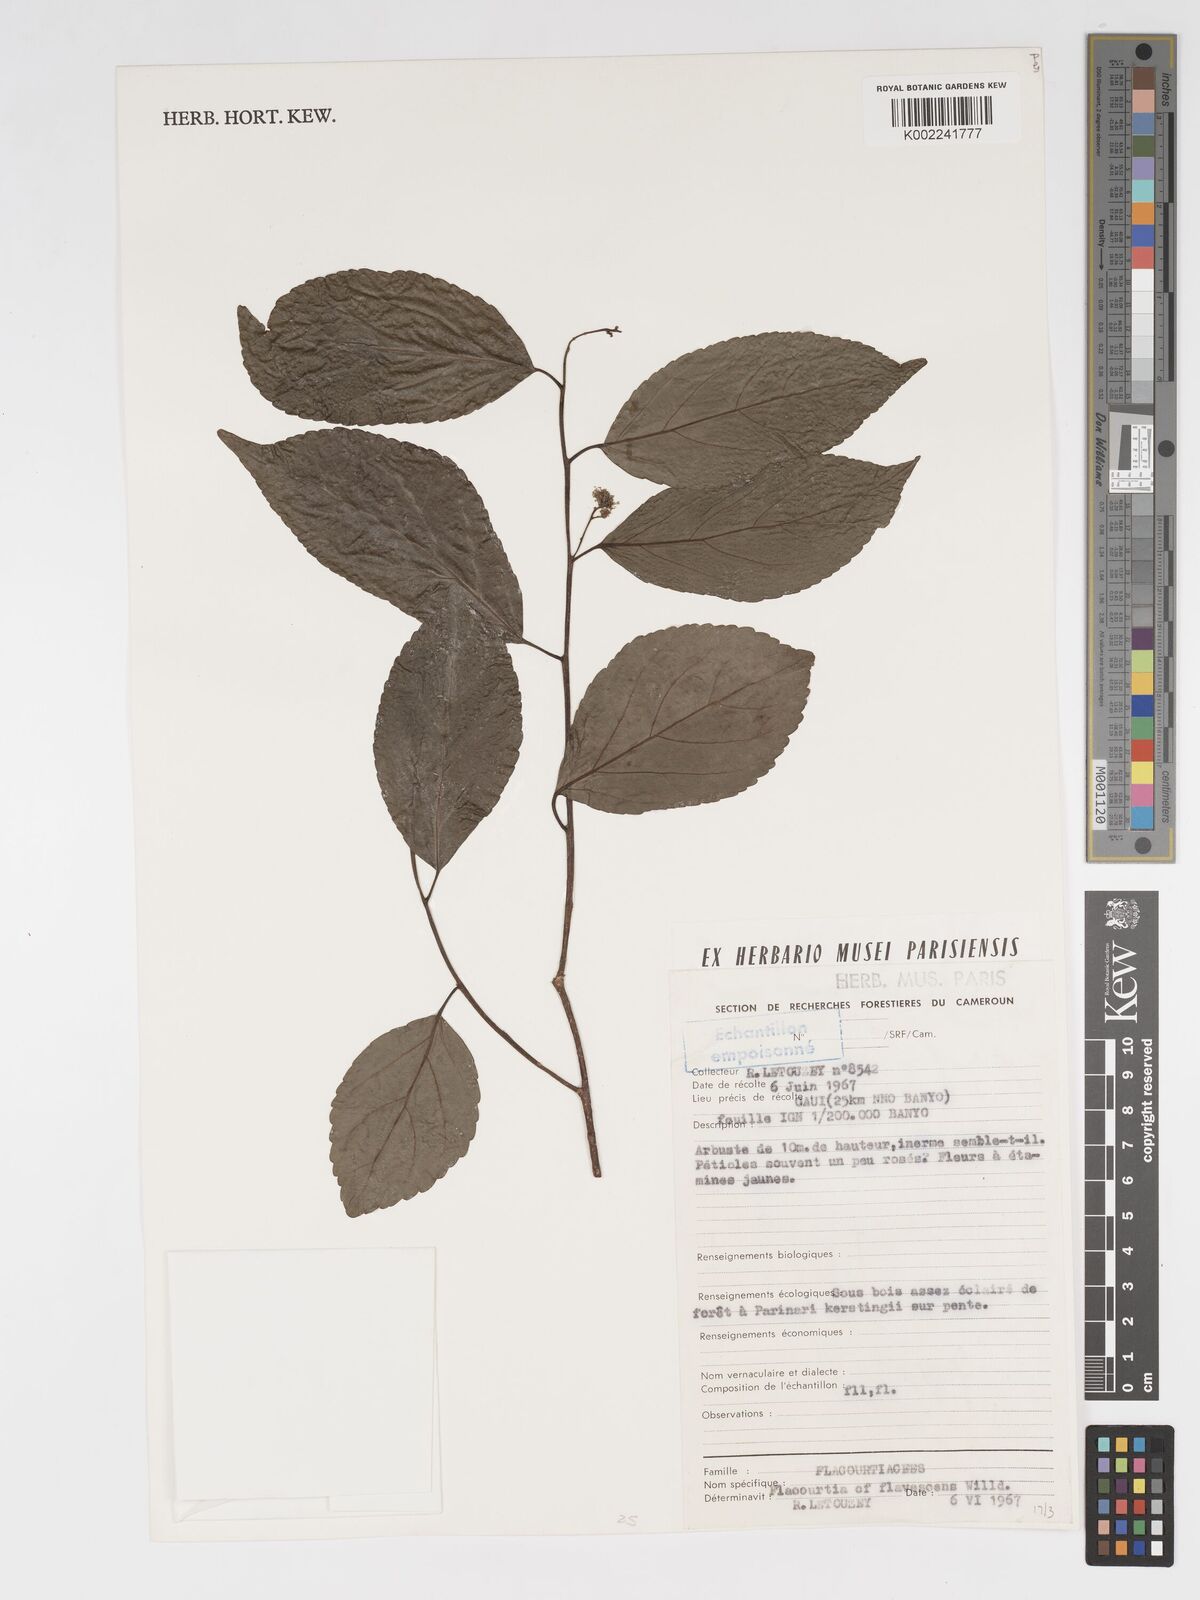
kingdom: Plantae
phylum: Tracheophyta
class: Magnoliopsida
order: Malpighiales
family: Salicaceae
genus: Flacourtia
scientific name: Flacourtia indica
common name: Governor's plum
